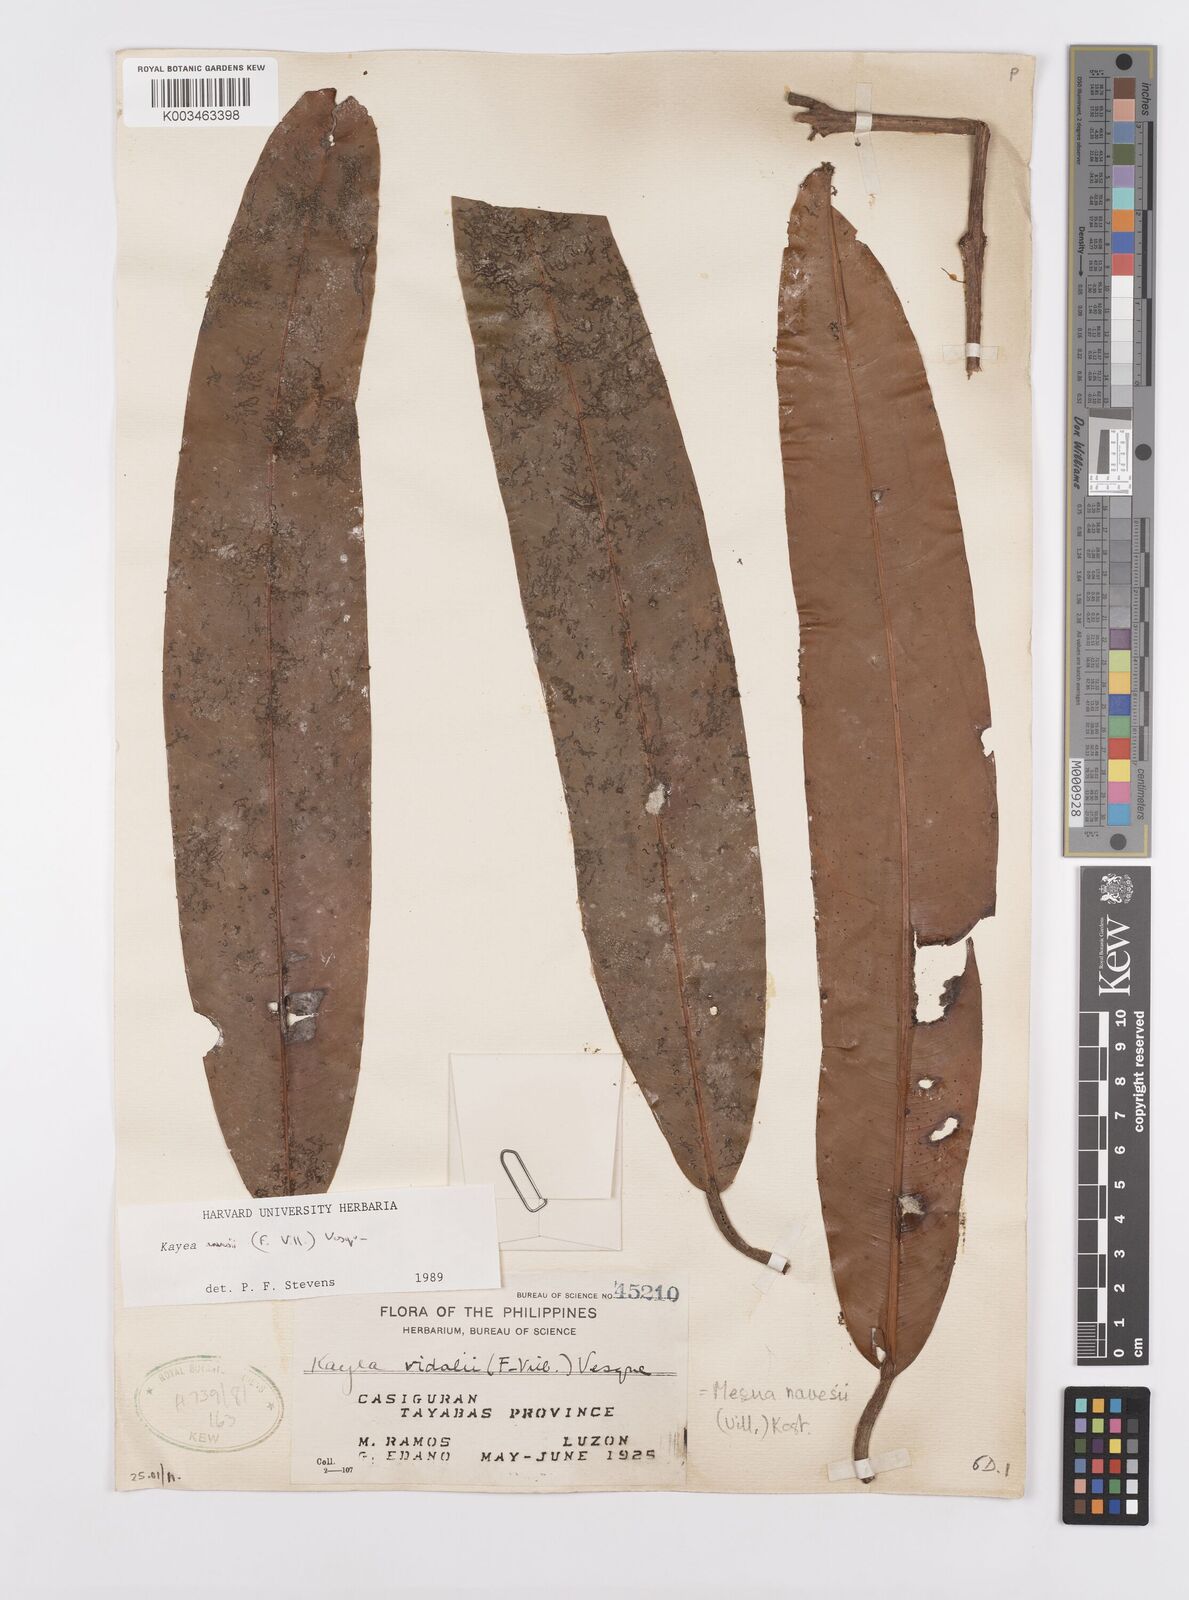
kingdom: Plantae
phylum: Tracheophyta
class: Magnoliopsida
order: Malpighiales
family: Calophyllaceae
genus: Kayea
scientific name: Kayea navesii
